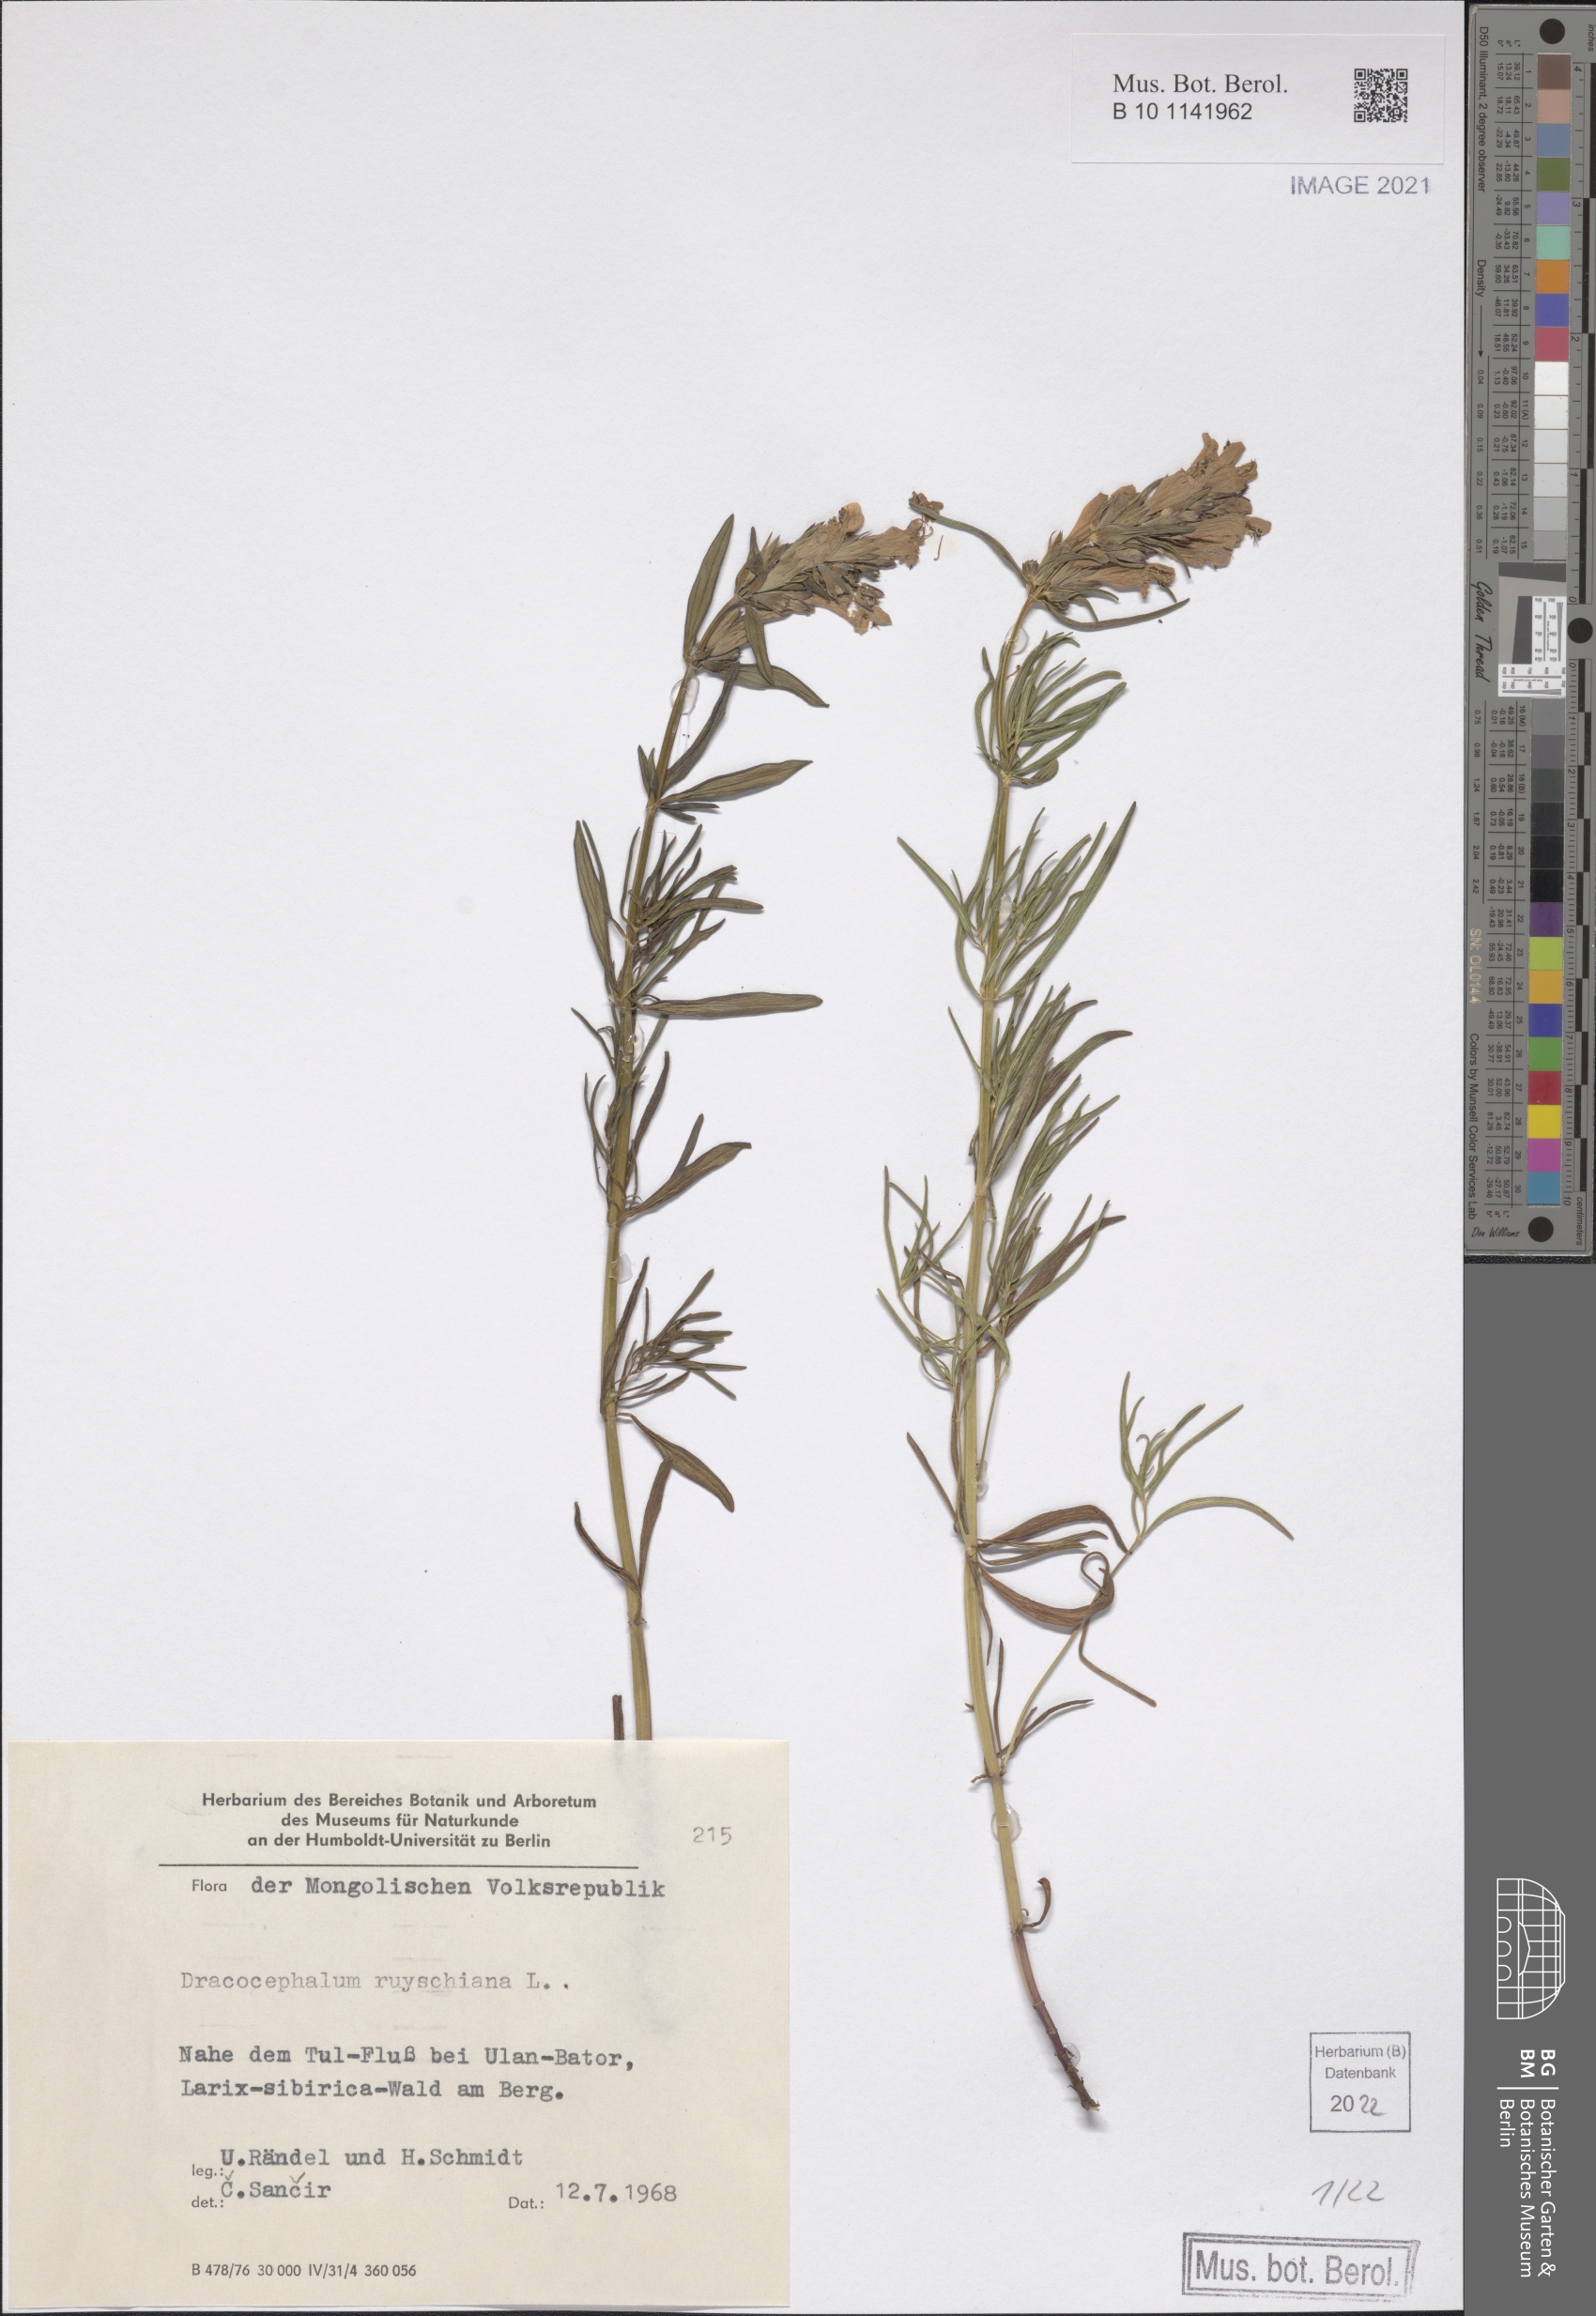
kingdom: Plantae
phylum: Tracheophyta
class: Magnoliopsida
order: Lamiales
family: Lamiaceae
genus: Dracocephalum
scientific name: Dracocephalum ruyschiana
